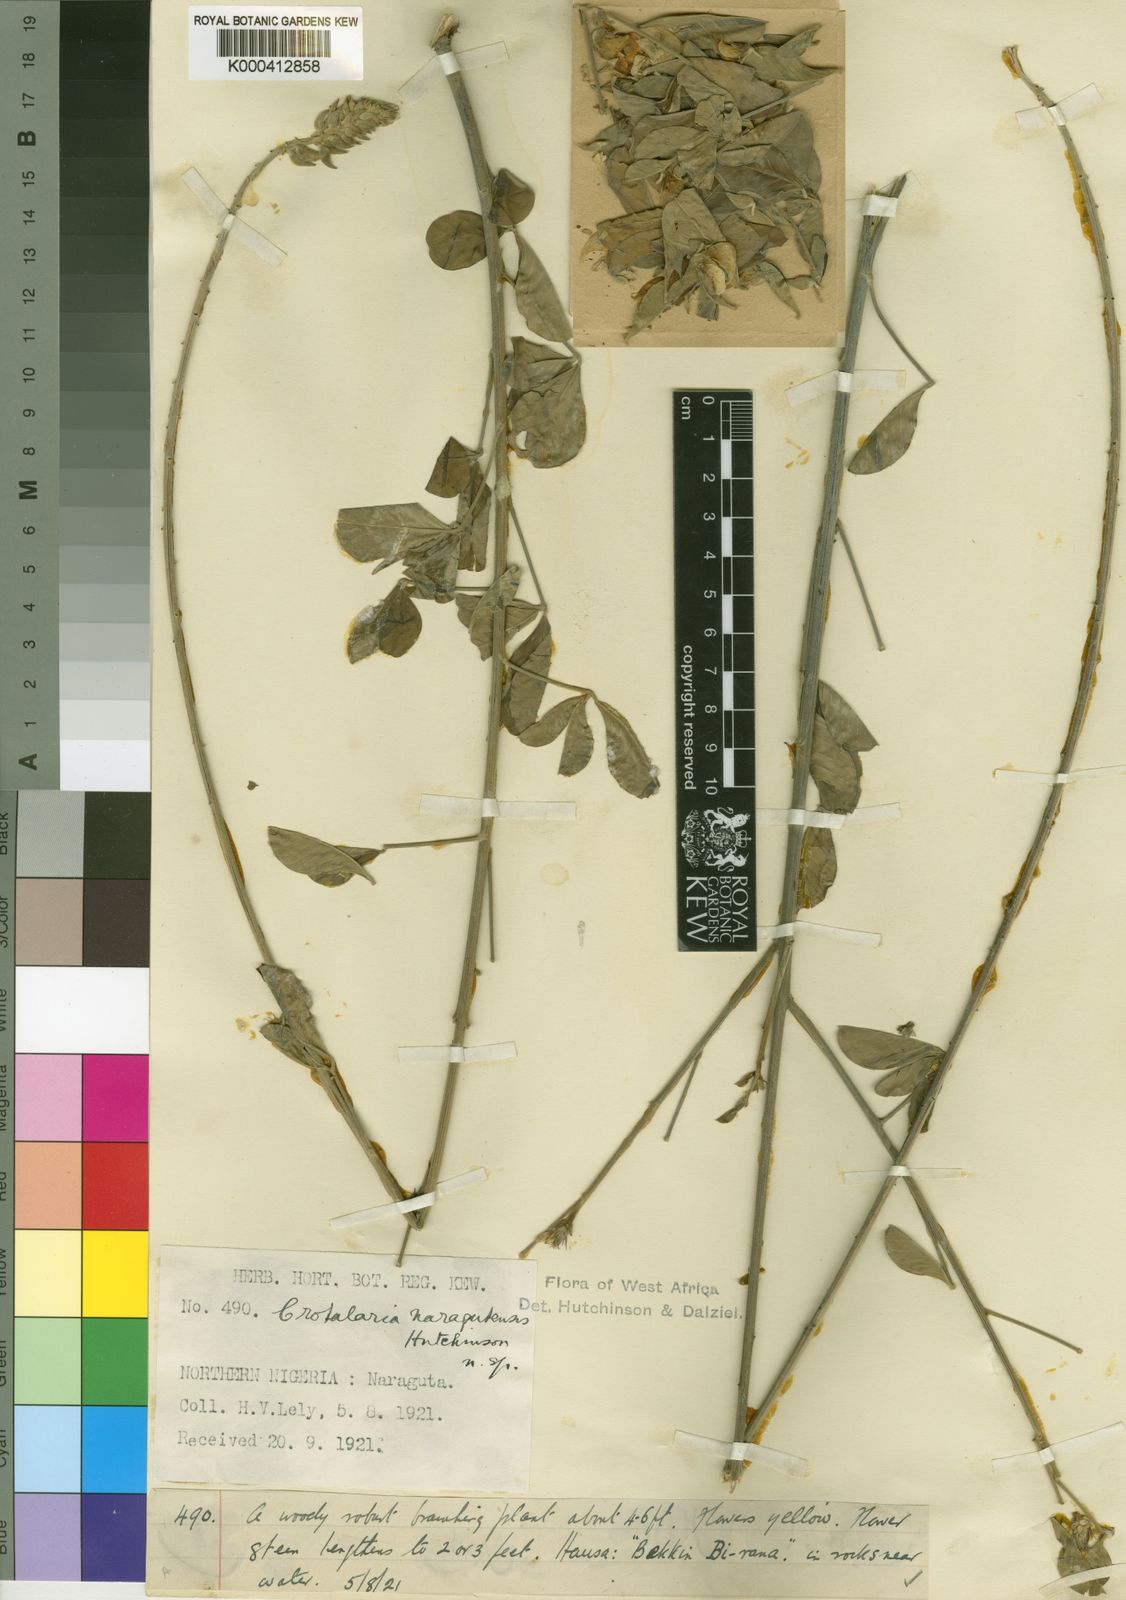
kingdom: Plantae
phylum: Tracheophyta
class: Magnoliopsida
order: Fabales
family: Fabaceae
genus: Crotalaria
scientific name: Crotalaria naragutensis
